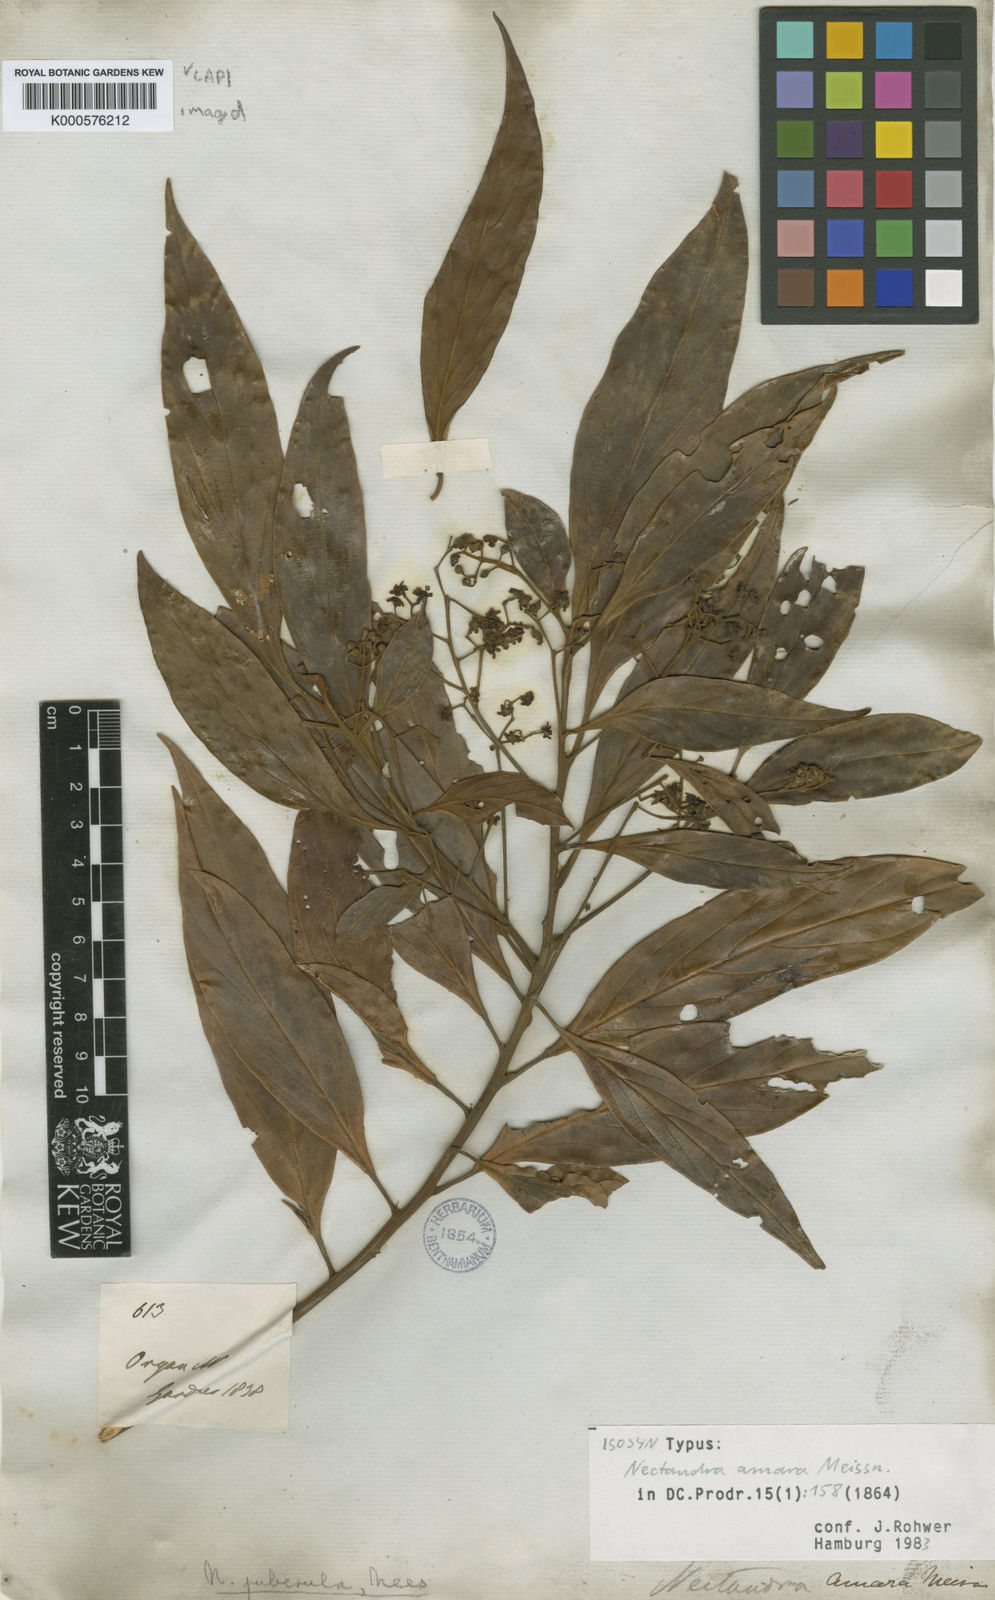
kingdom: Plantae
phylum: Tracheophyta
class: Magnoliopsida
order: Laurales
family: Lauraceae
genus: Nectandra
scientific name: Nectandra puberula
